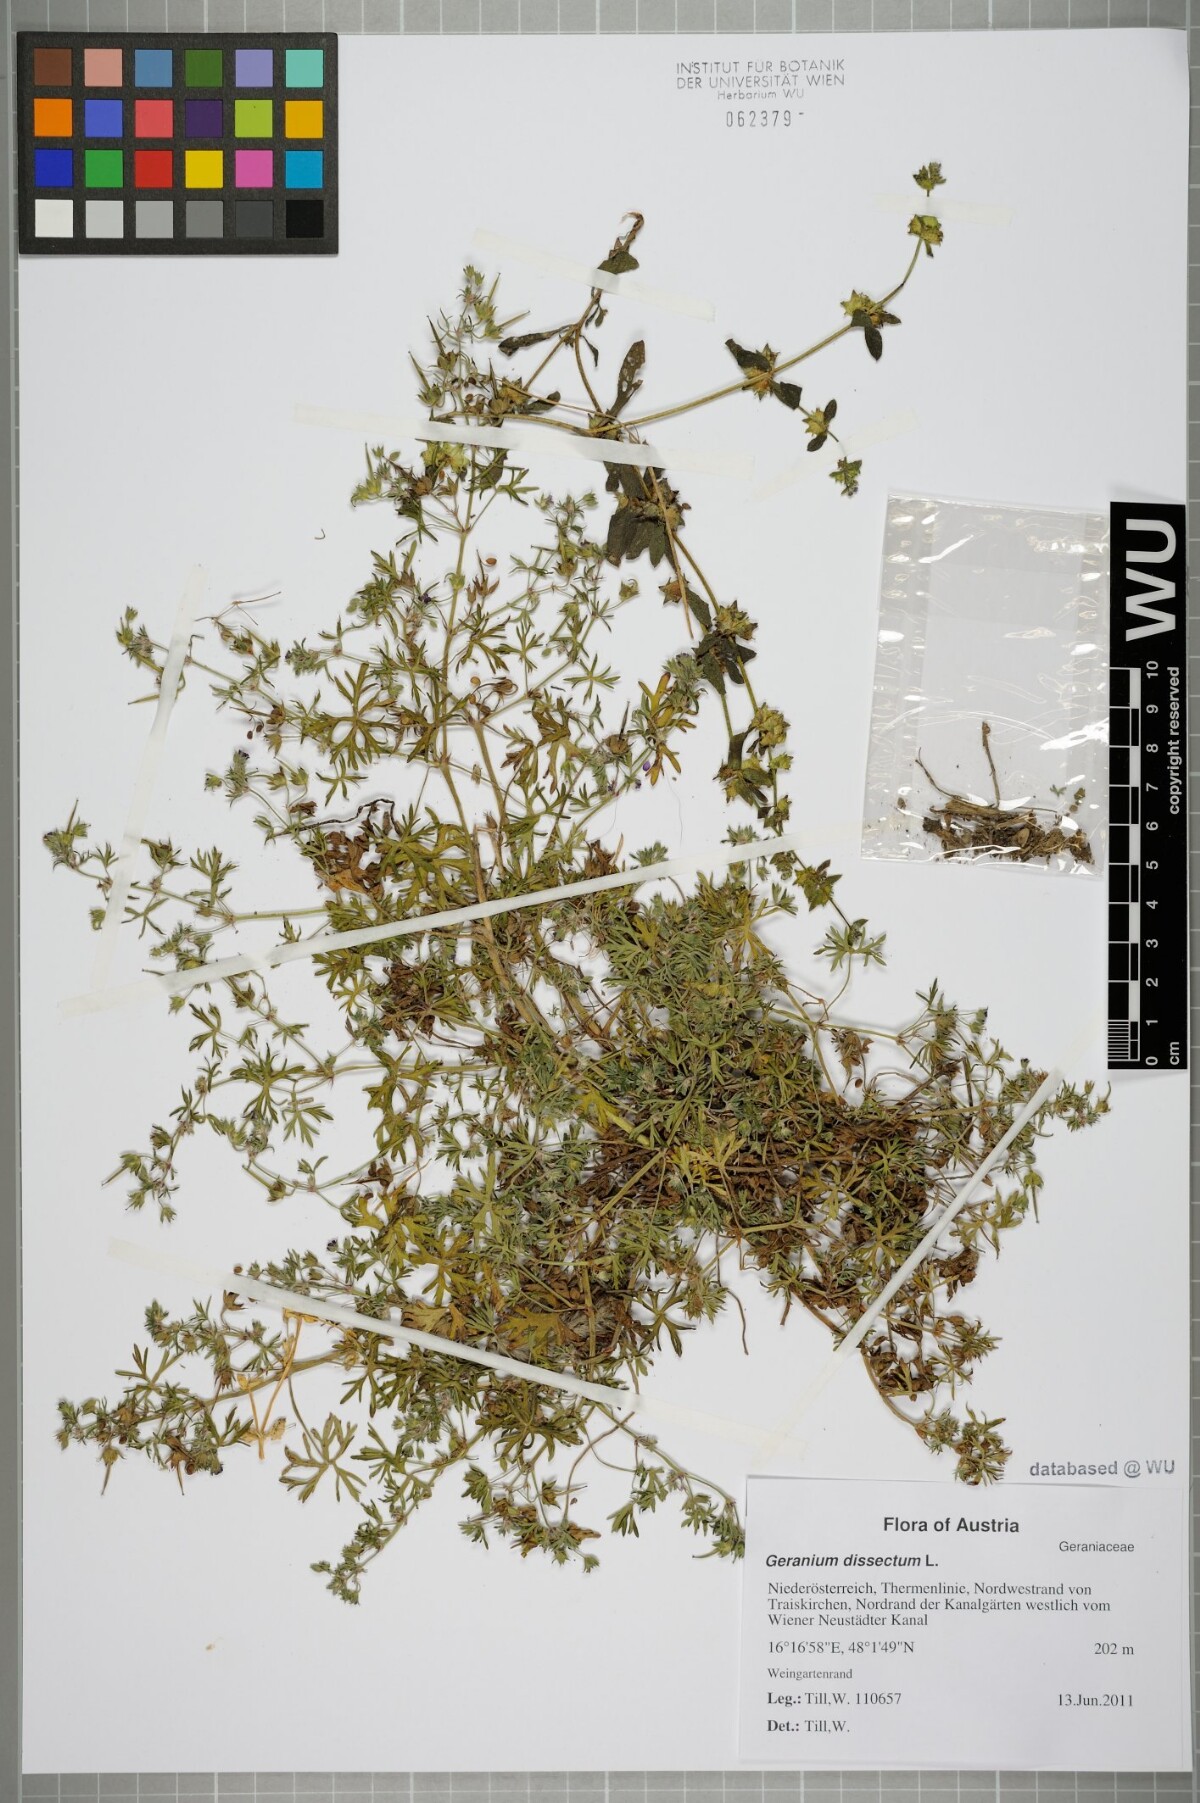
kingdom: Plantae
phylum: Tracheophyta
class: Magnoliopsida
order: Geraniales
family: Geraniaceae
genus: Geranium
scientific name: Geranium dissectum
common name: Cut-leaved crane's-bill
